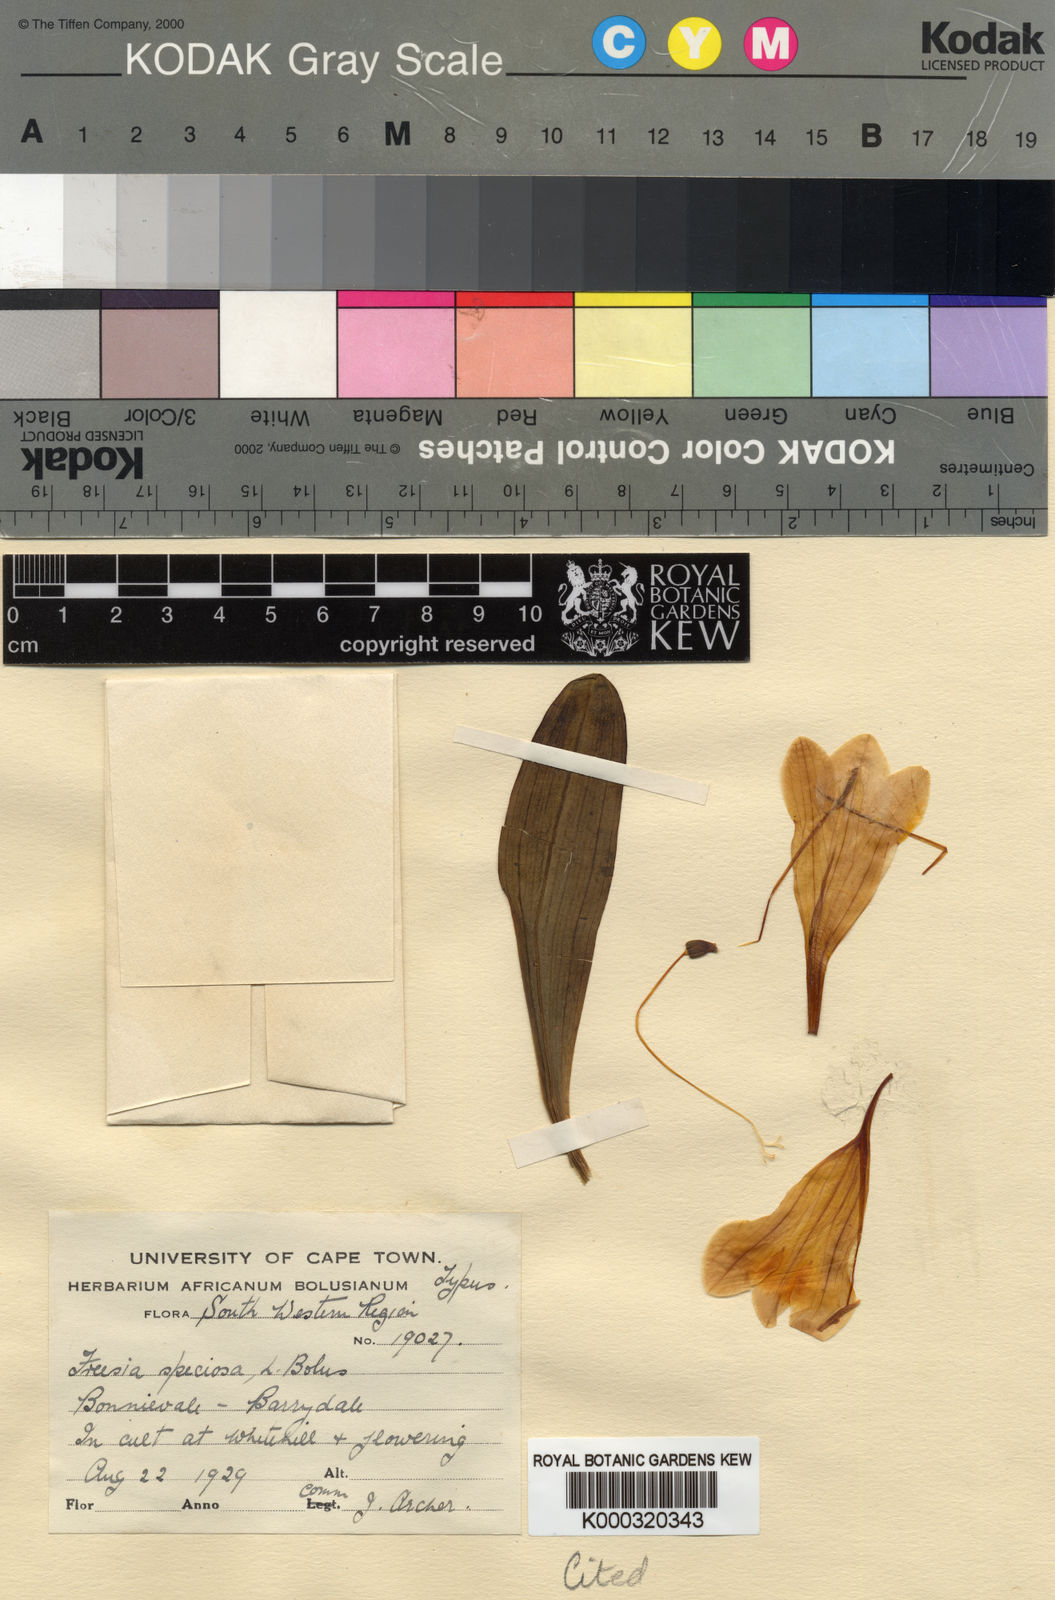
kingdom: Plantae
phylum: Tracheophyta
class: Liliopsida
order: Asparagales
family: Iridaceae
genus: Freesia
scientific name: Freesia speciosa
